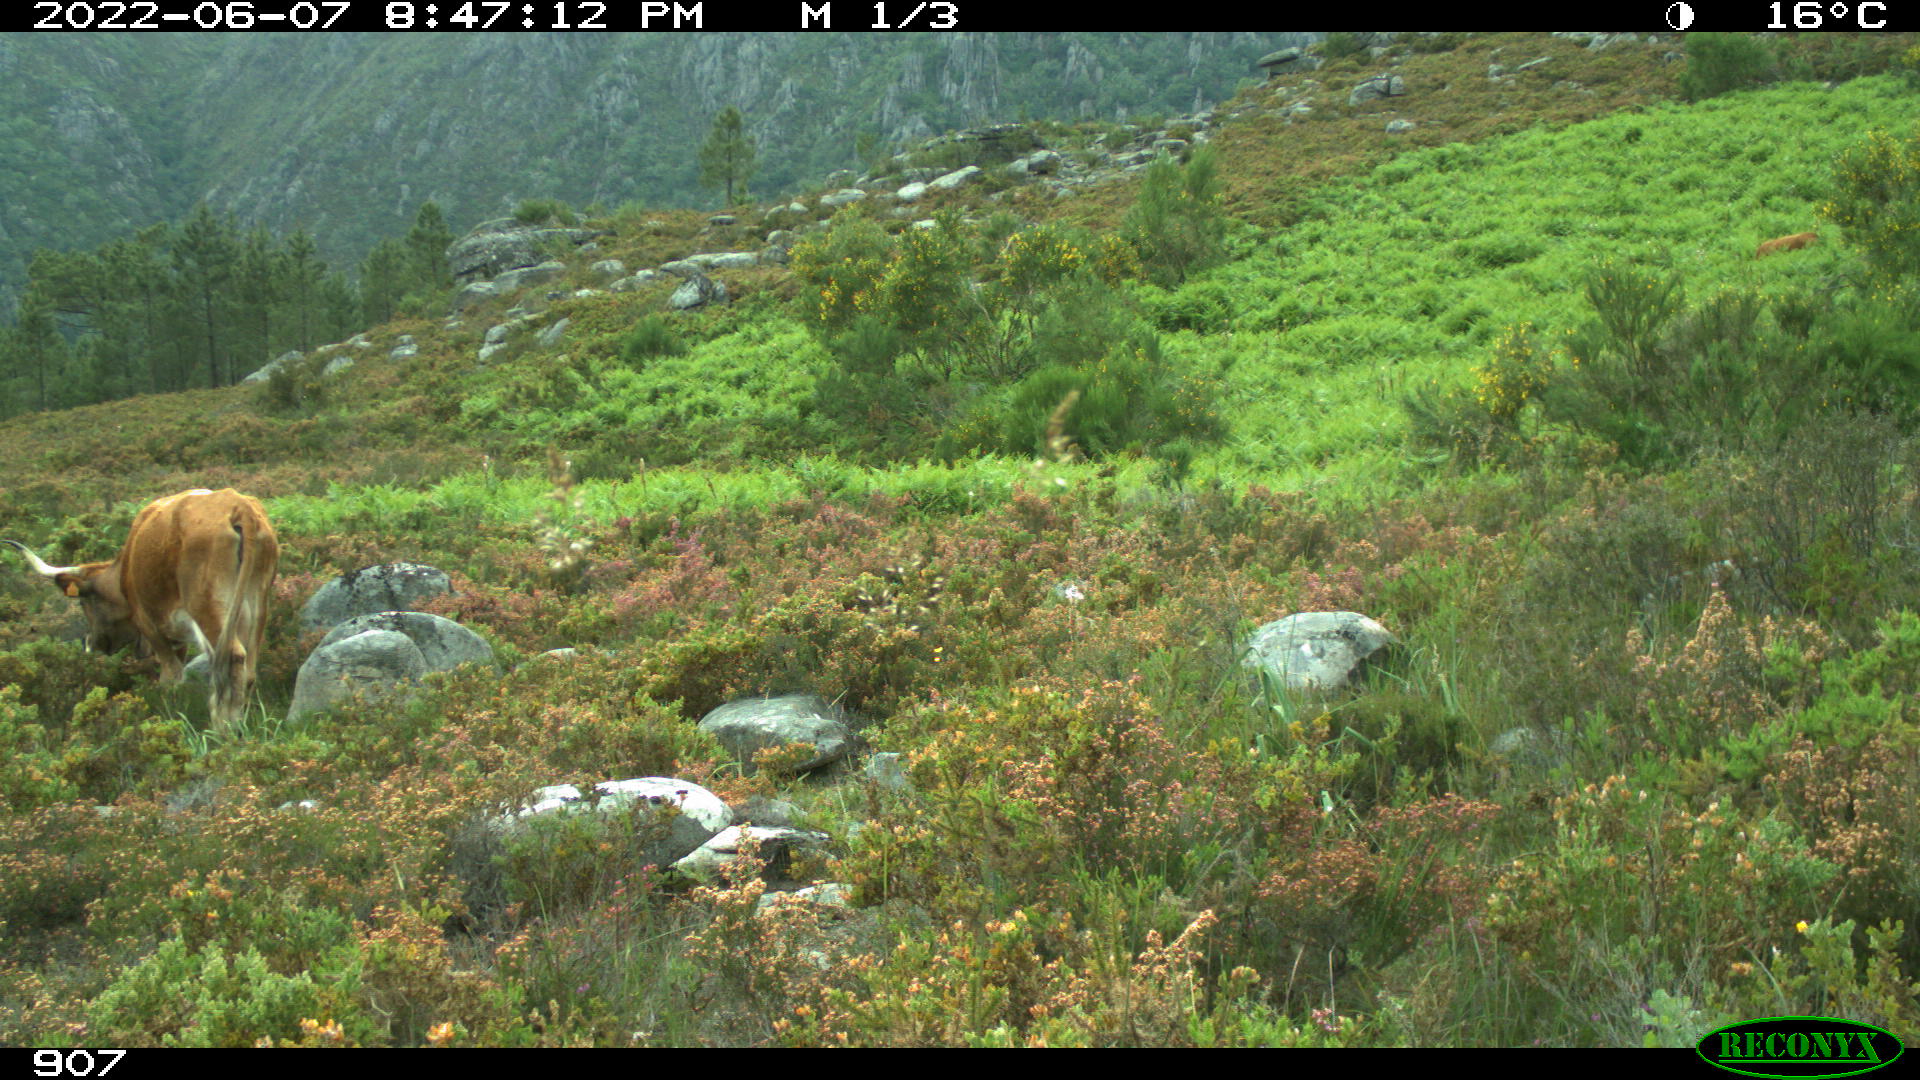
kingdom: Animalia
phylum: Chordata
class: Mammalia
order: Artiodactyla
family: Bovidae
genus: Bos
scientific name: Bos taurus
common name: Domesticated cattle
